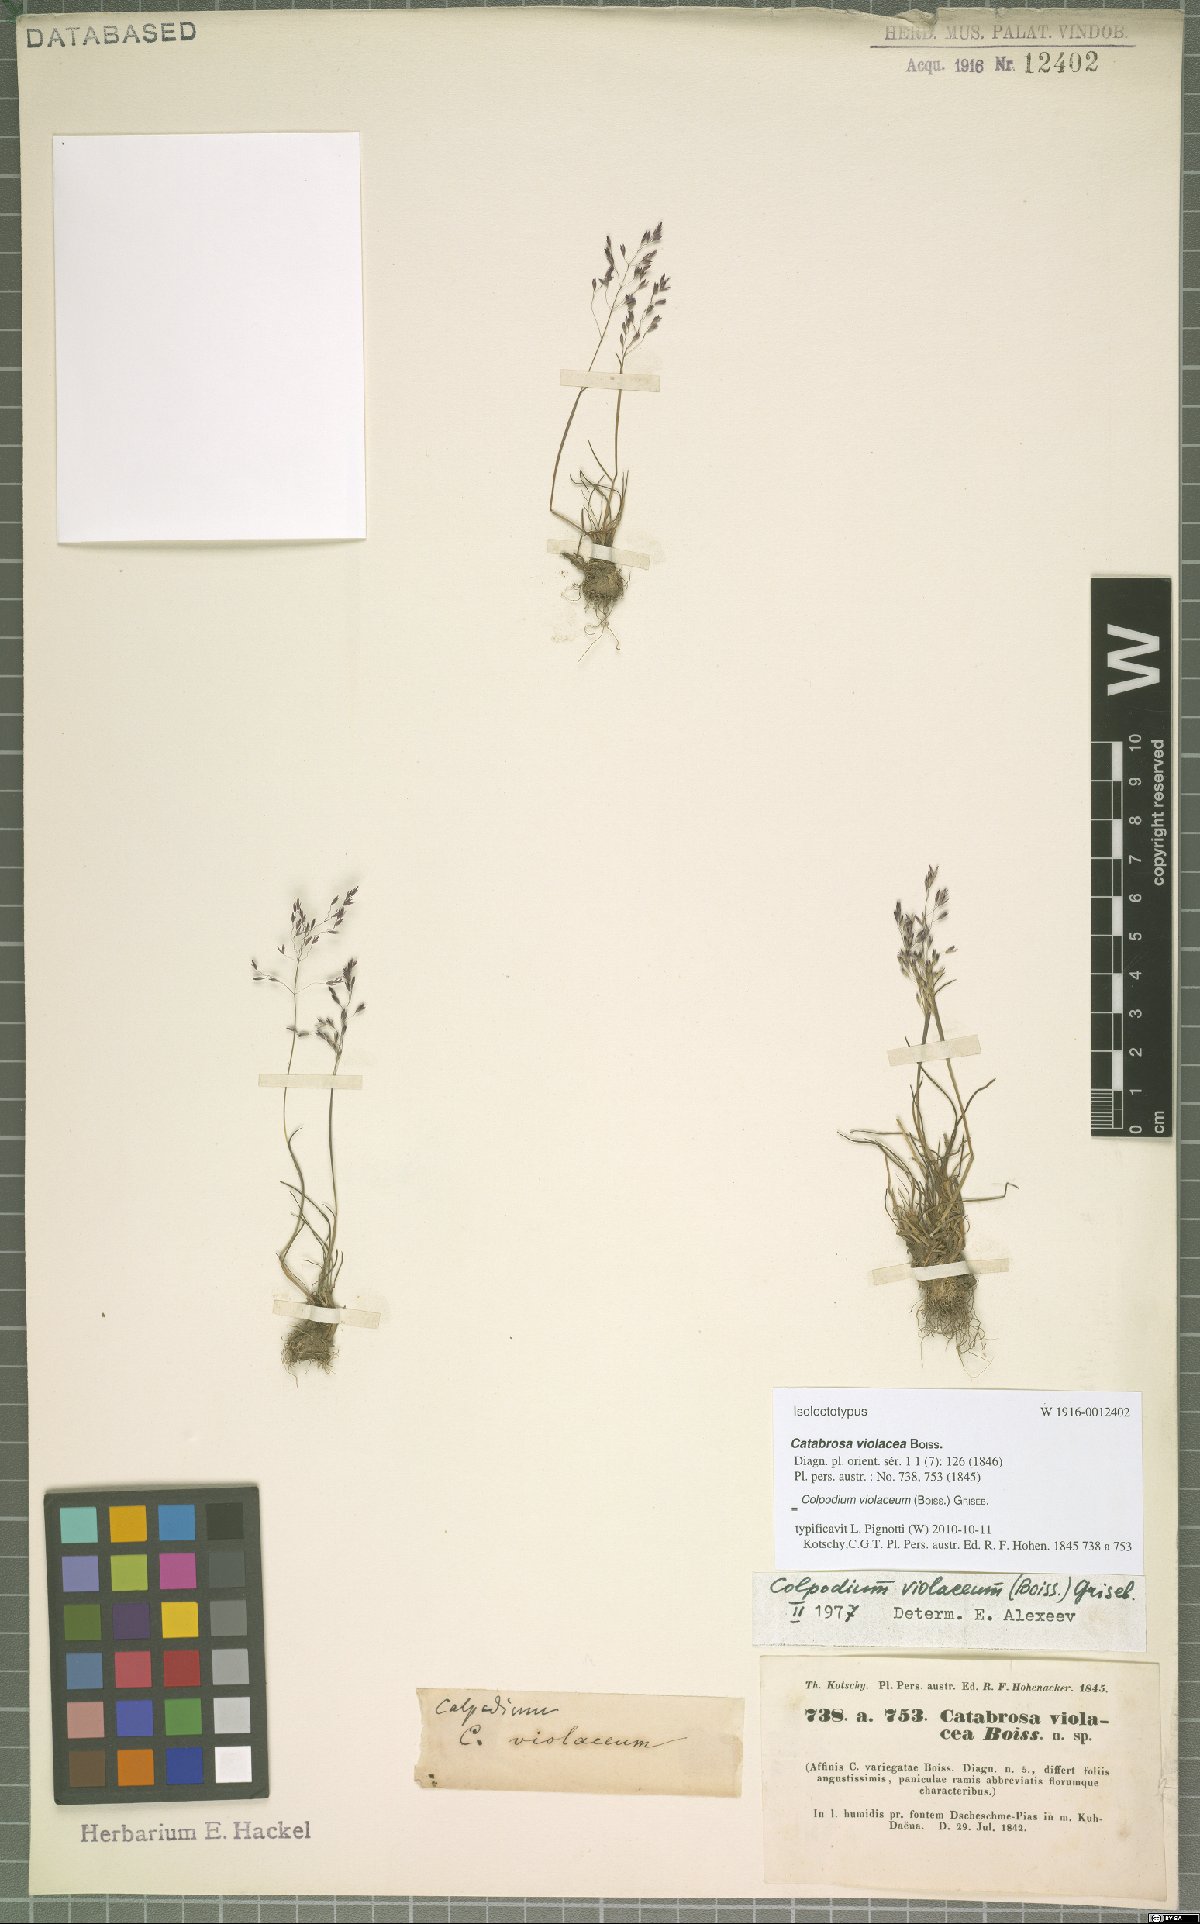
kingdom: Plantae
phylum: Tracheophyta
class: Liliopsida
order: Poales
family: Poaceae
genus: Catabrosella
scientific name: Catabrosella violacea
